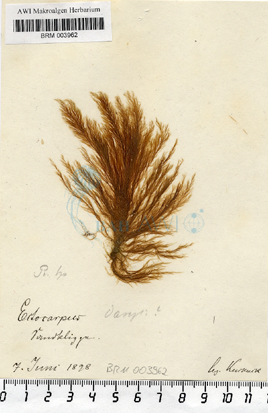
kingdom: Chromista
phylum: Ochrophyta
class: Phaeophyceae
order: Ectocarpales
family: Ectocarpaceae
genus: Ectocarpus
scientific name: Ectocarpus siliculosus
